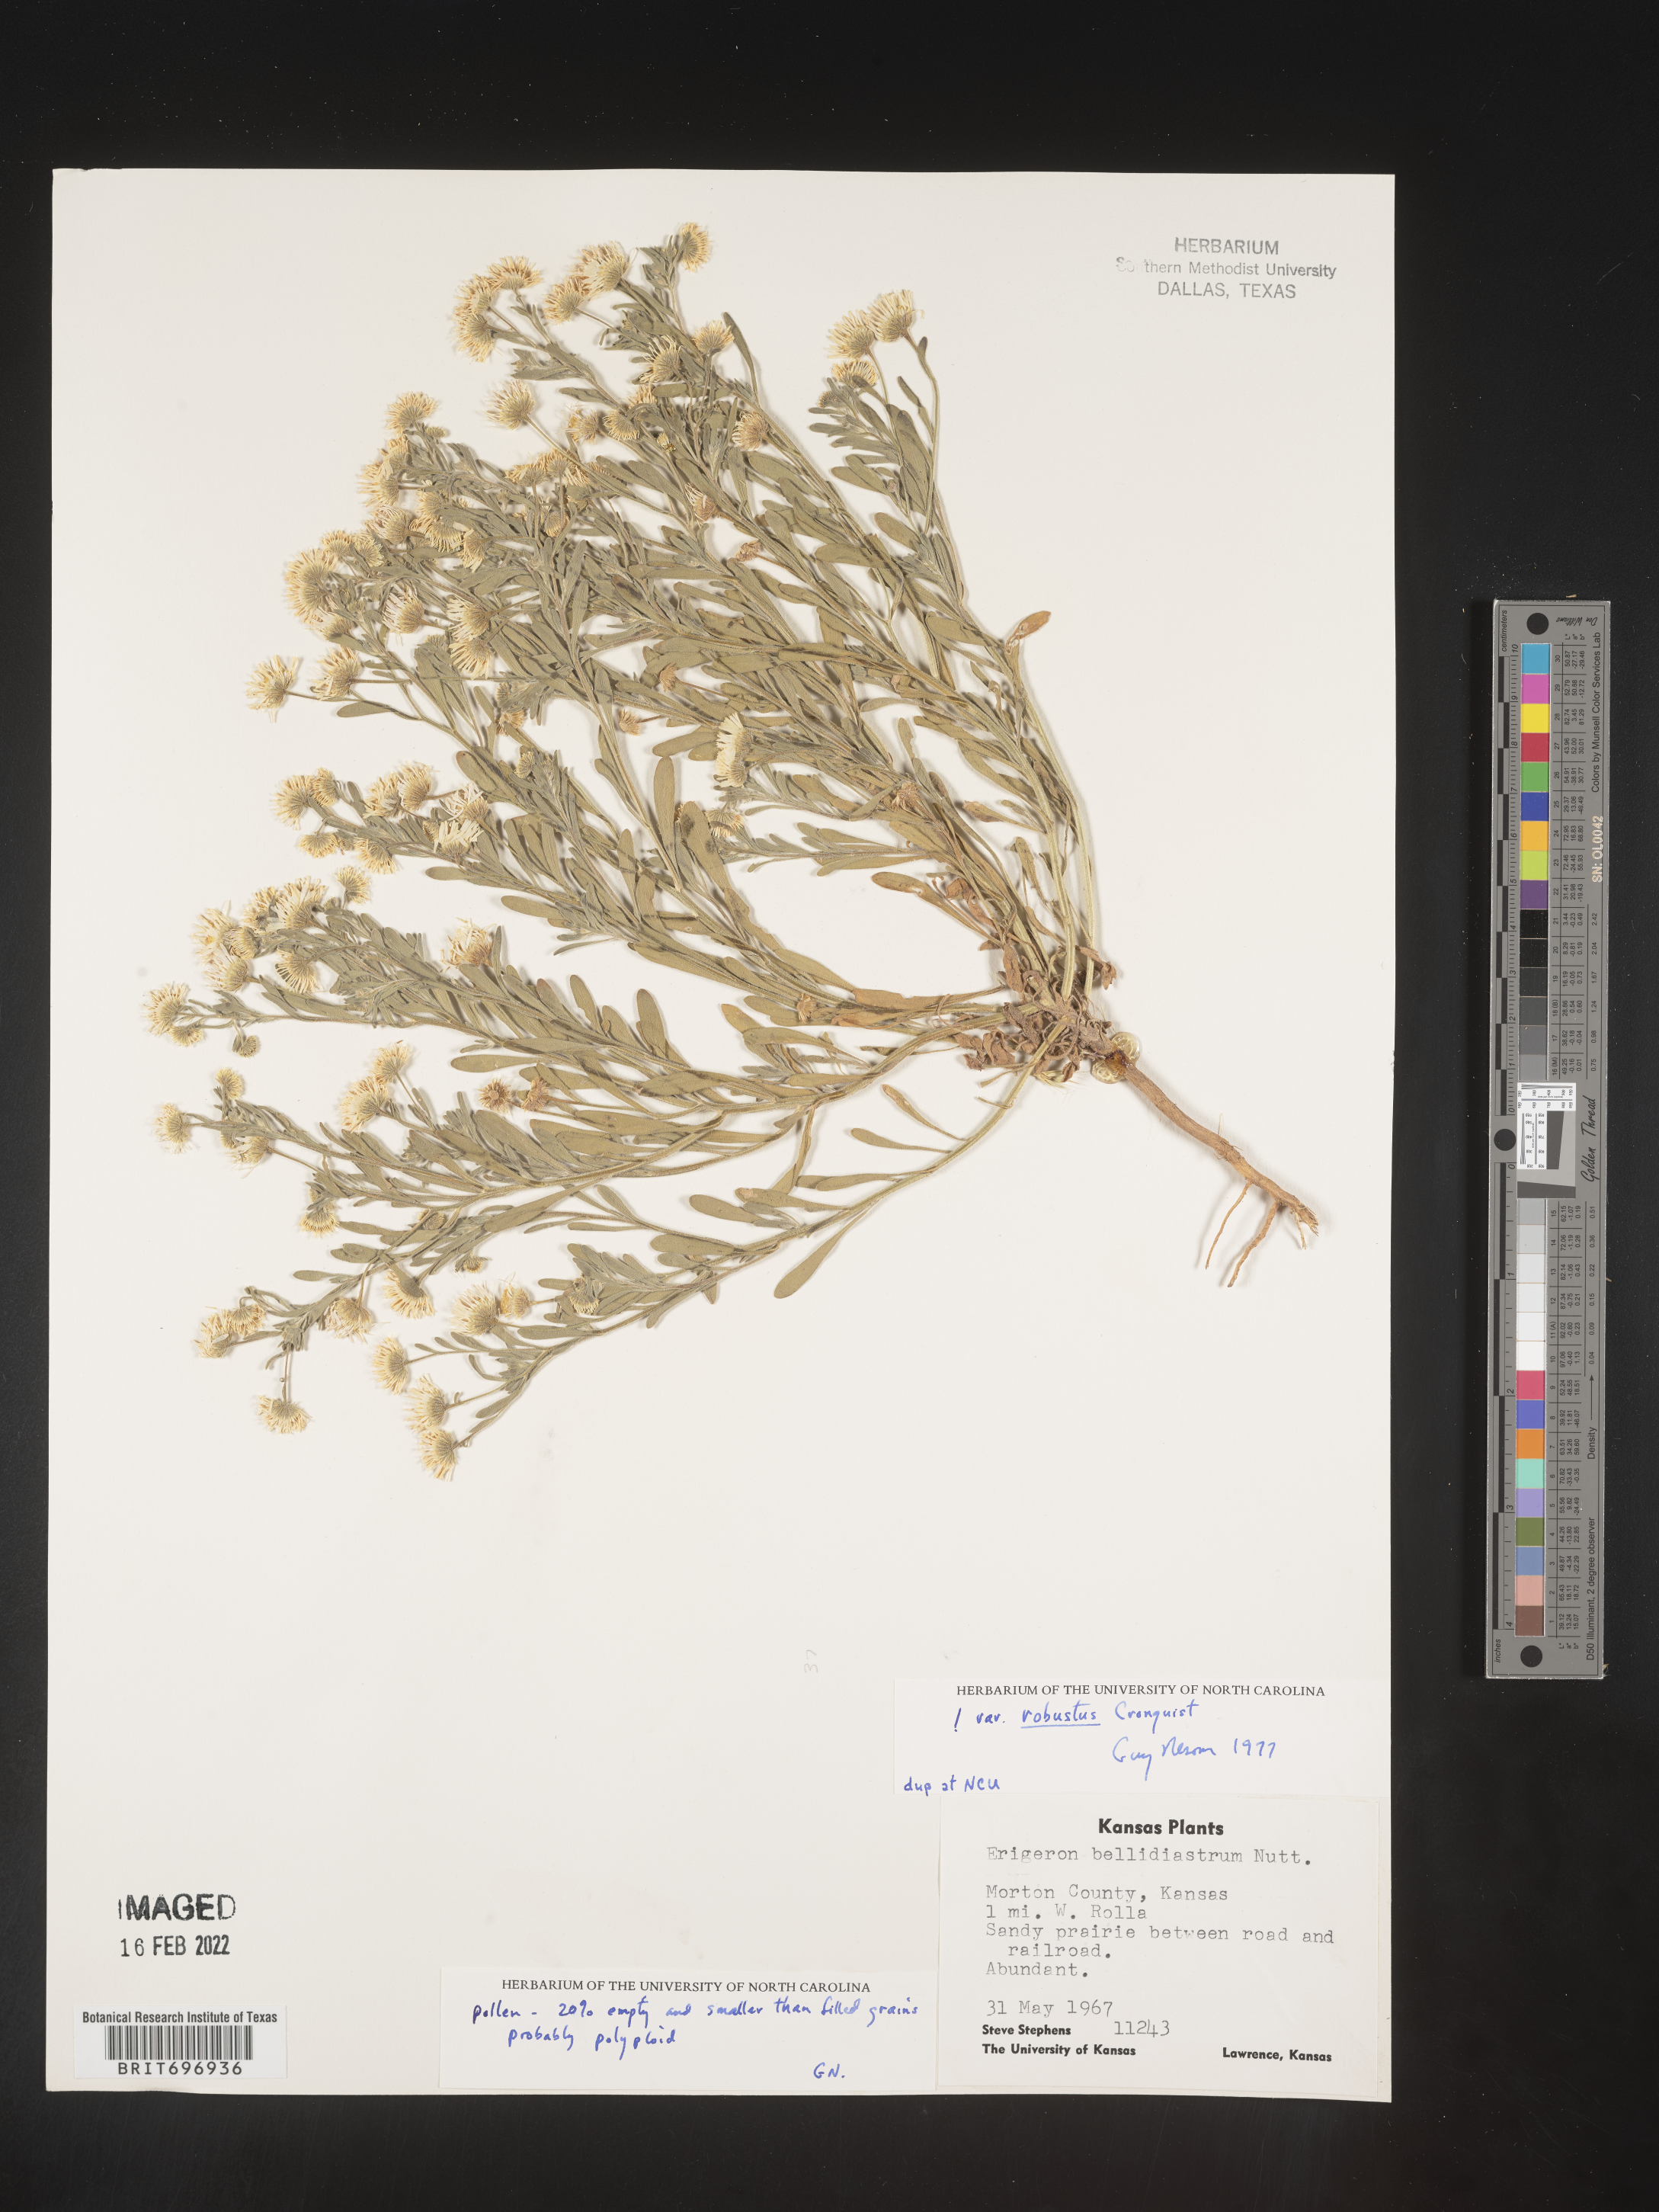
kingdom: Plantae
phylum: Tracheophyta
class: Magnoliopsida
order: Asterales
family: Asteraceae
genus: Erigeron
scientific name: Erigeron bellidiastrum
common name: Sand fleabane
